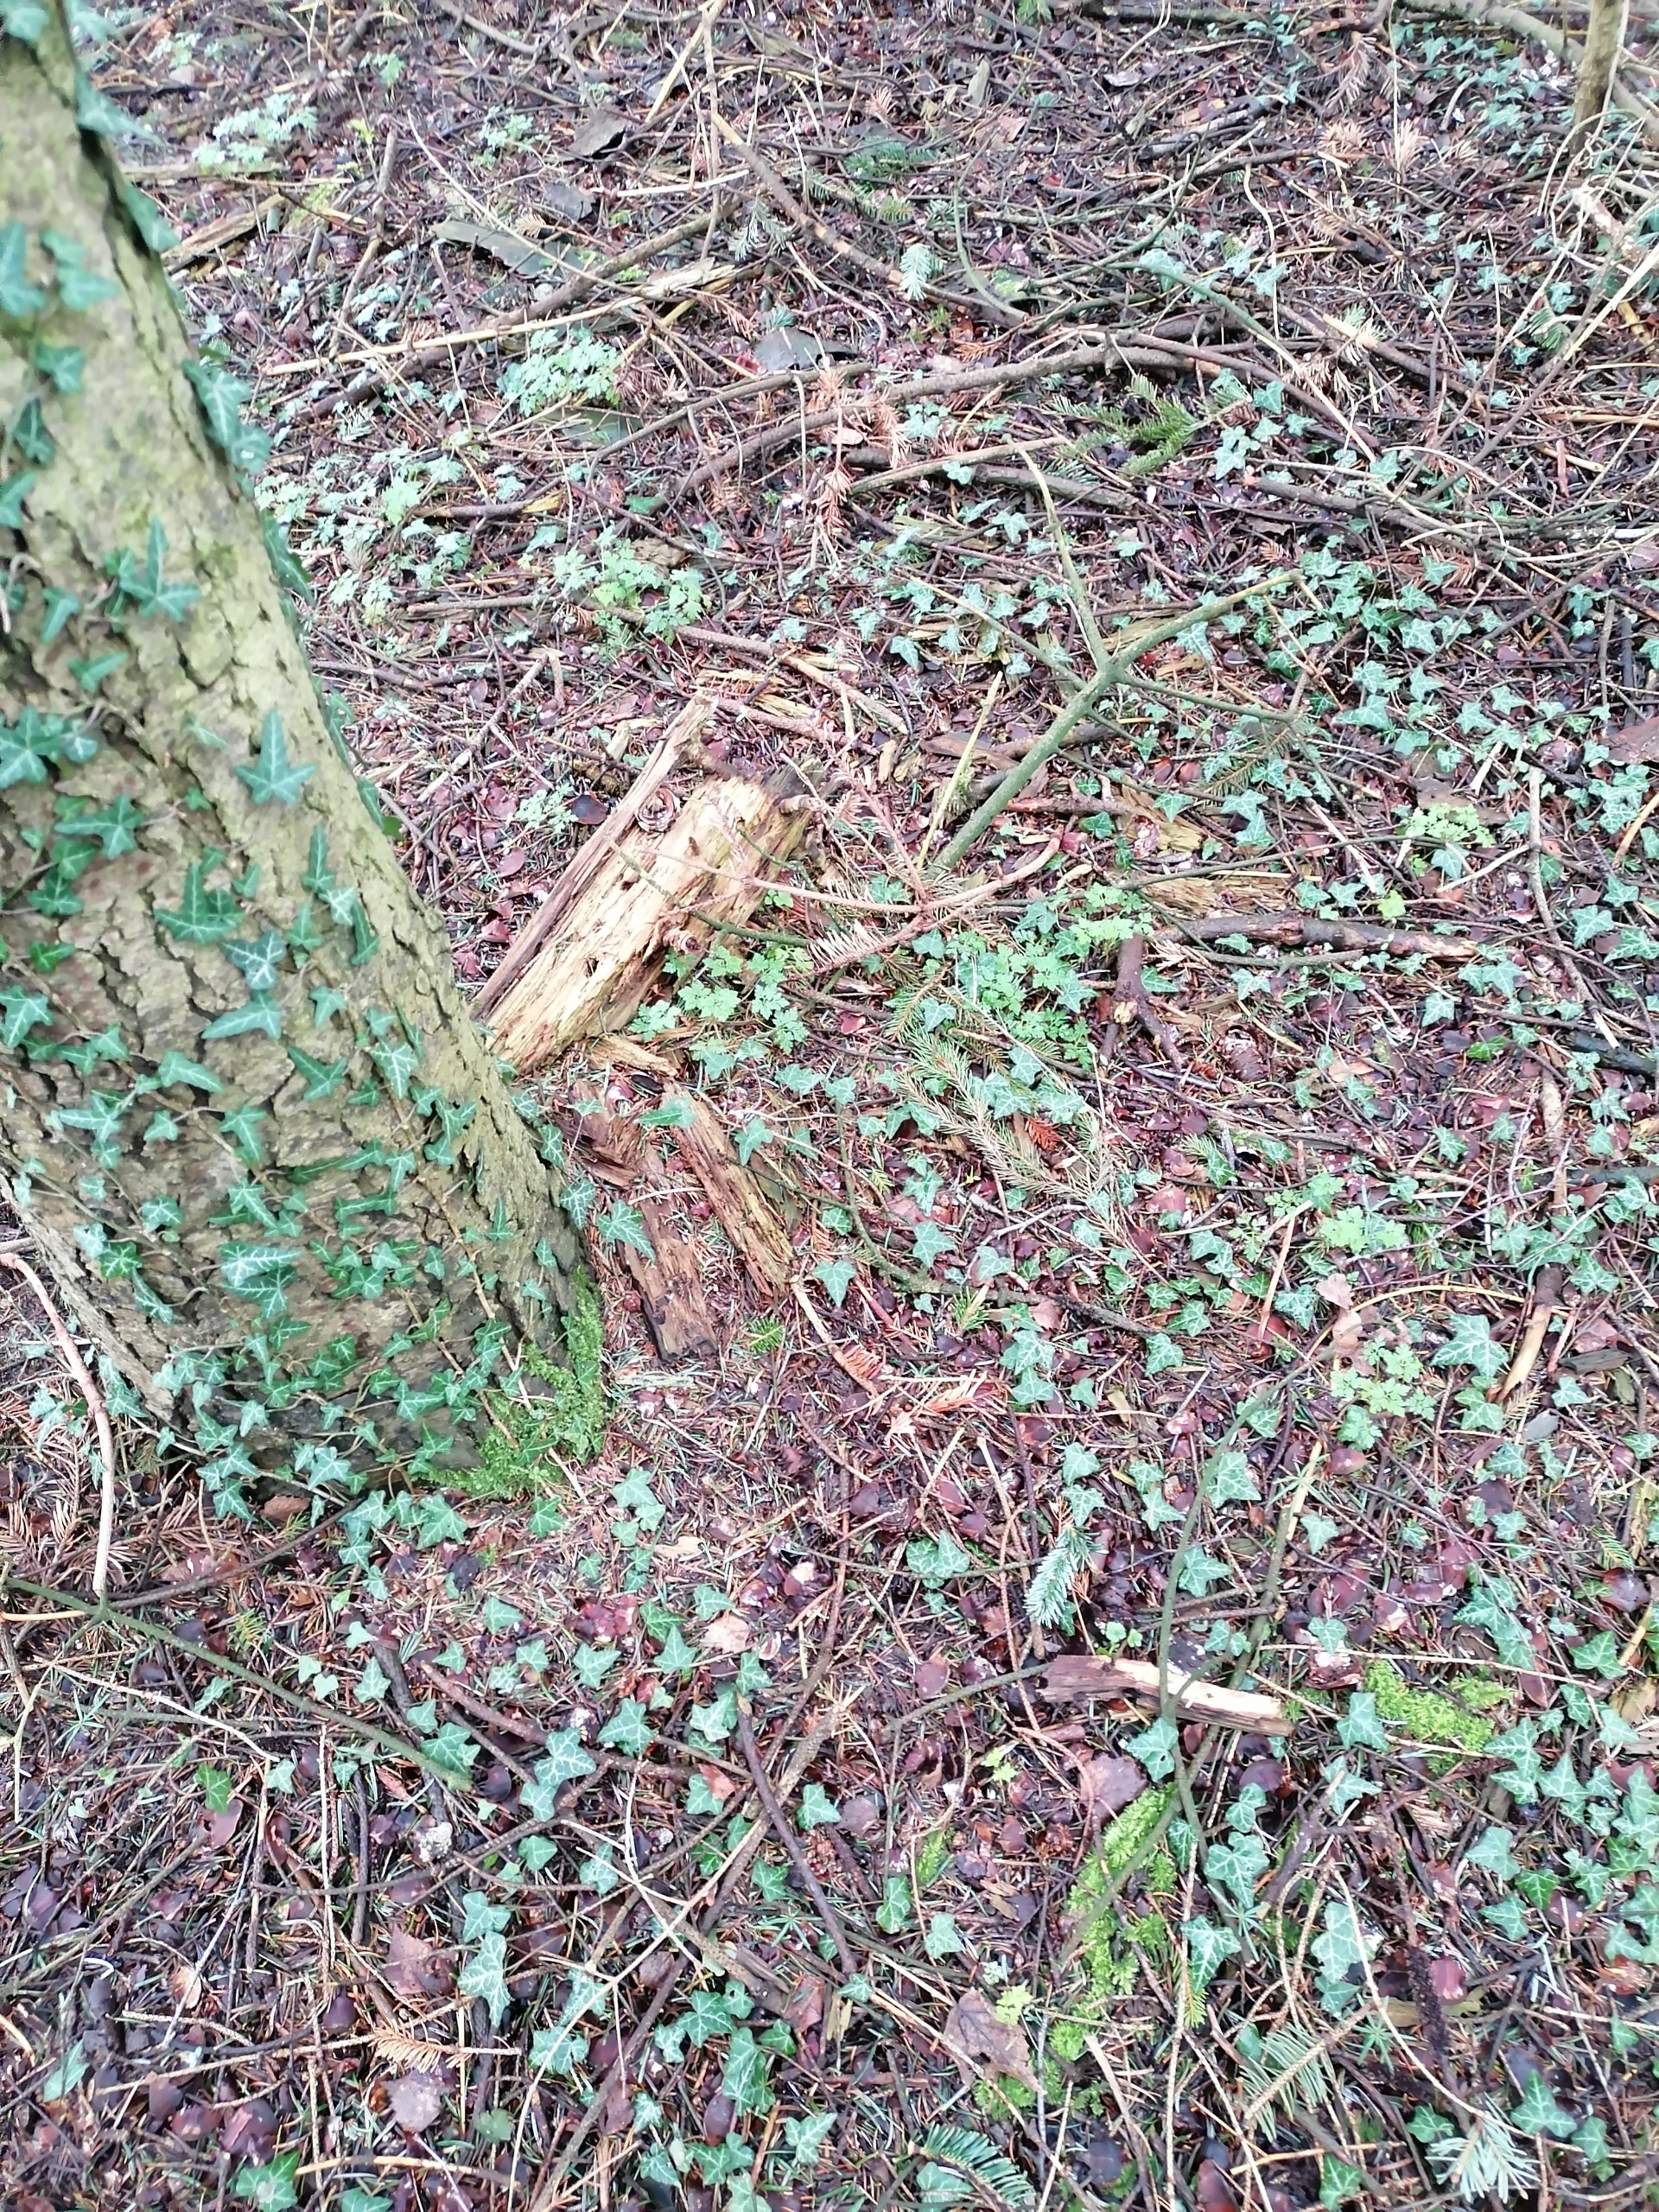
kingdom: Plantae
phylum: Tracheophyta
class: Magnoliopsida
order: Apiales
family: Araliaceae
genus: Hedera
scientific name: Hedera helix
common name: Vedbend
